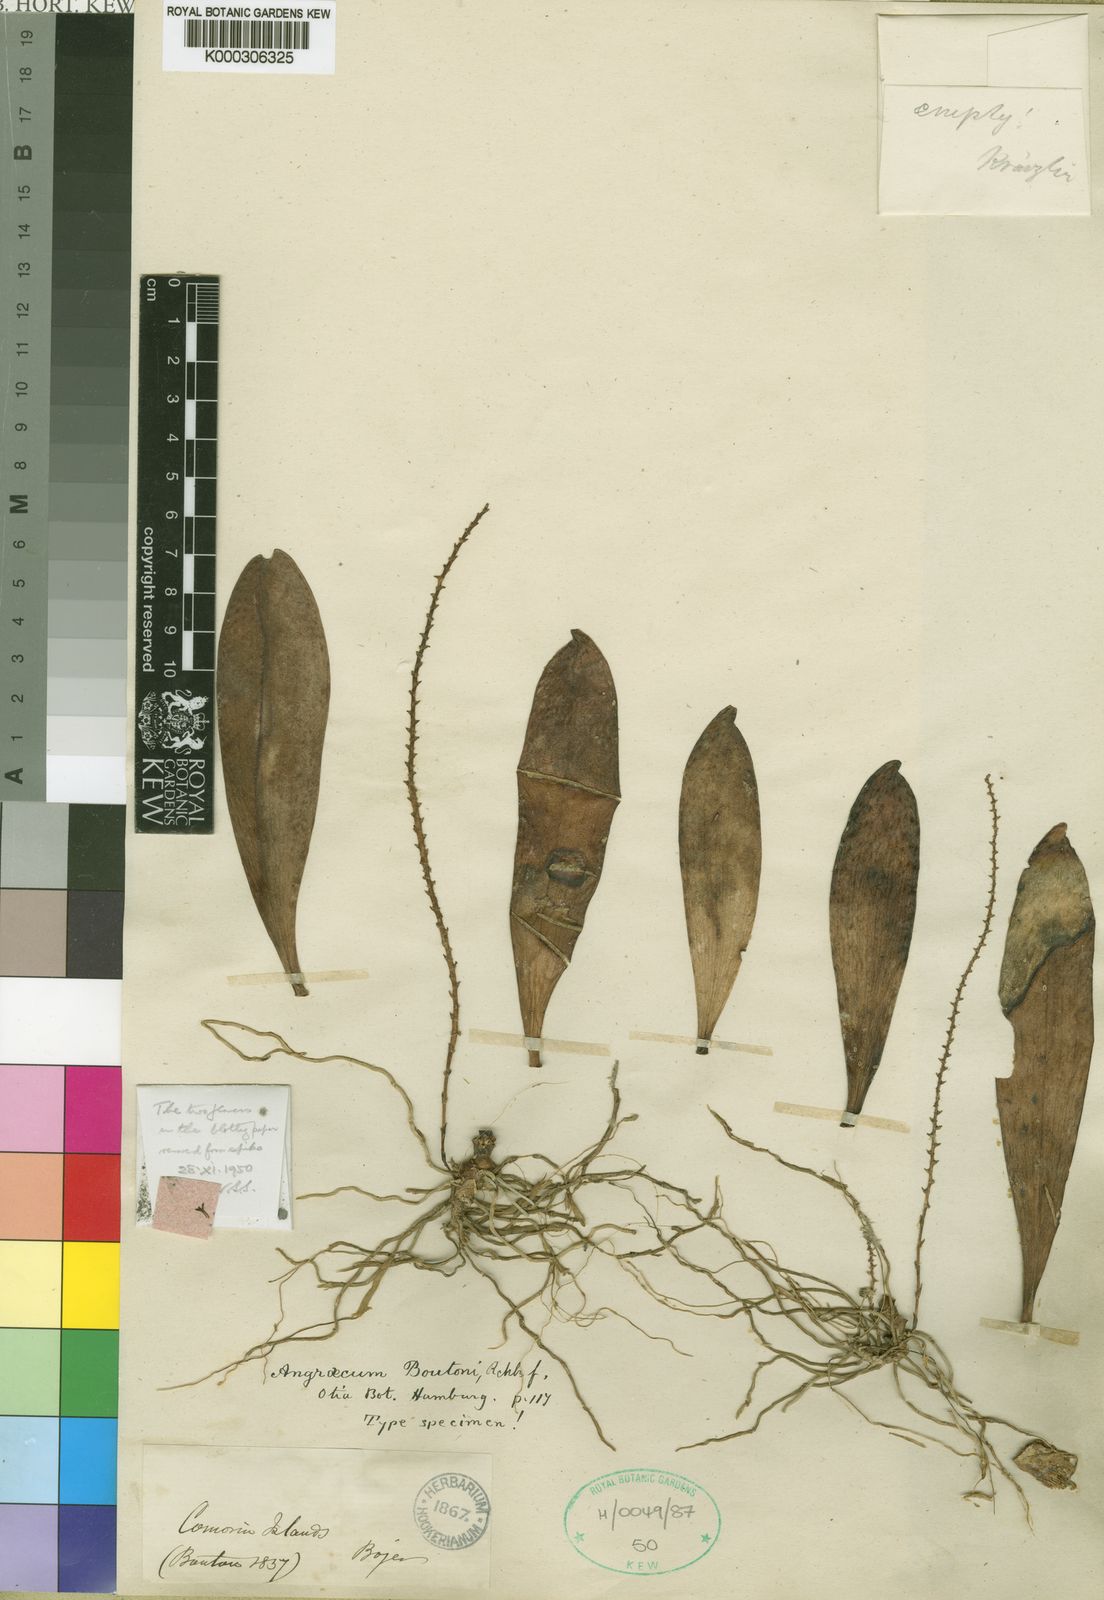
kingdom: Plantae
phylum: Tracheophyta
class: Liliopsida
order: Asparagales
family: Orchidaceae
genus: Aerangis
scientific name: Aerangis boutonii
